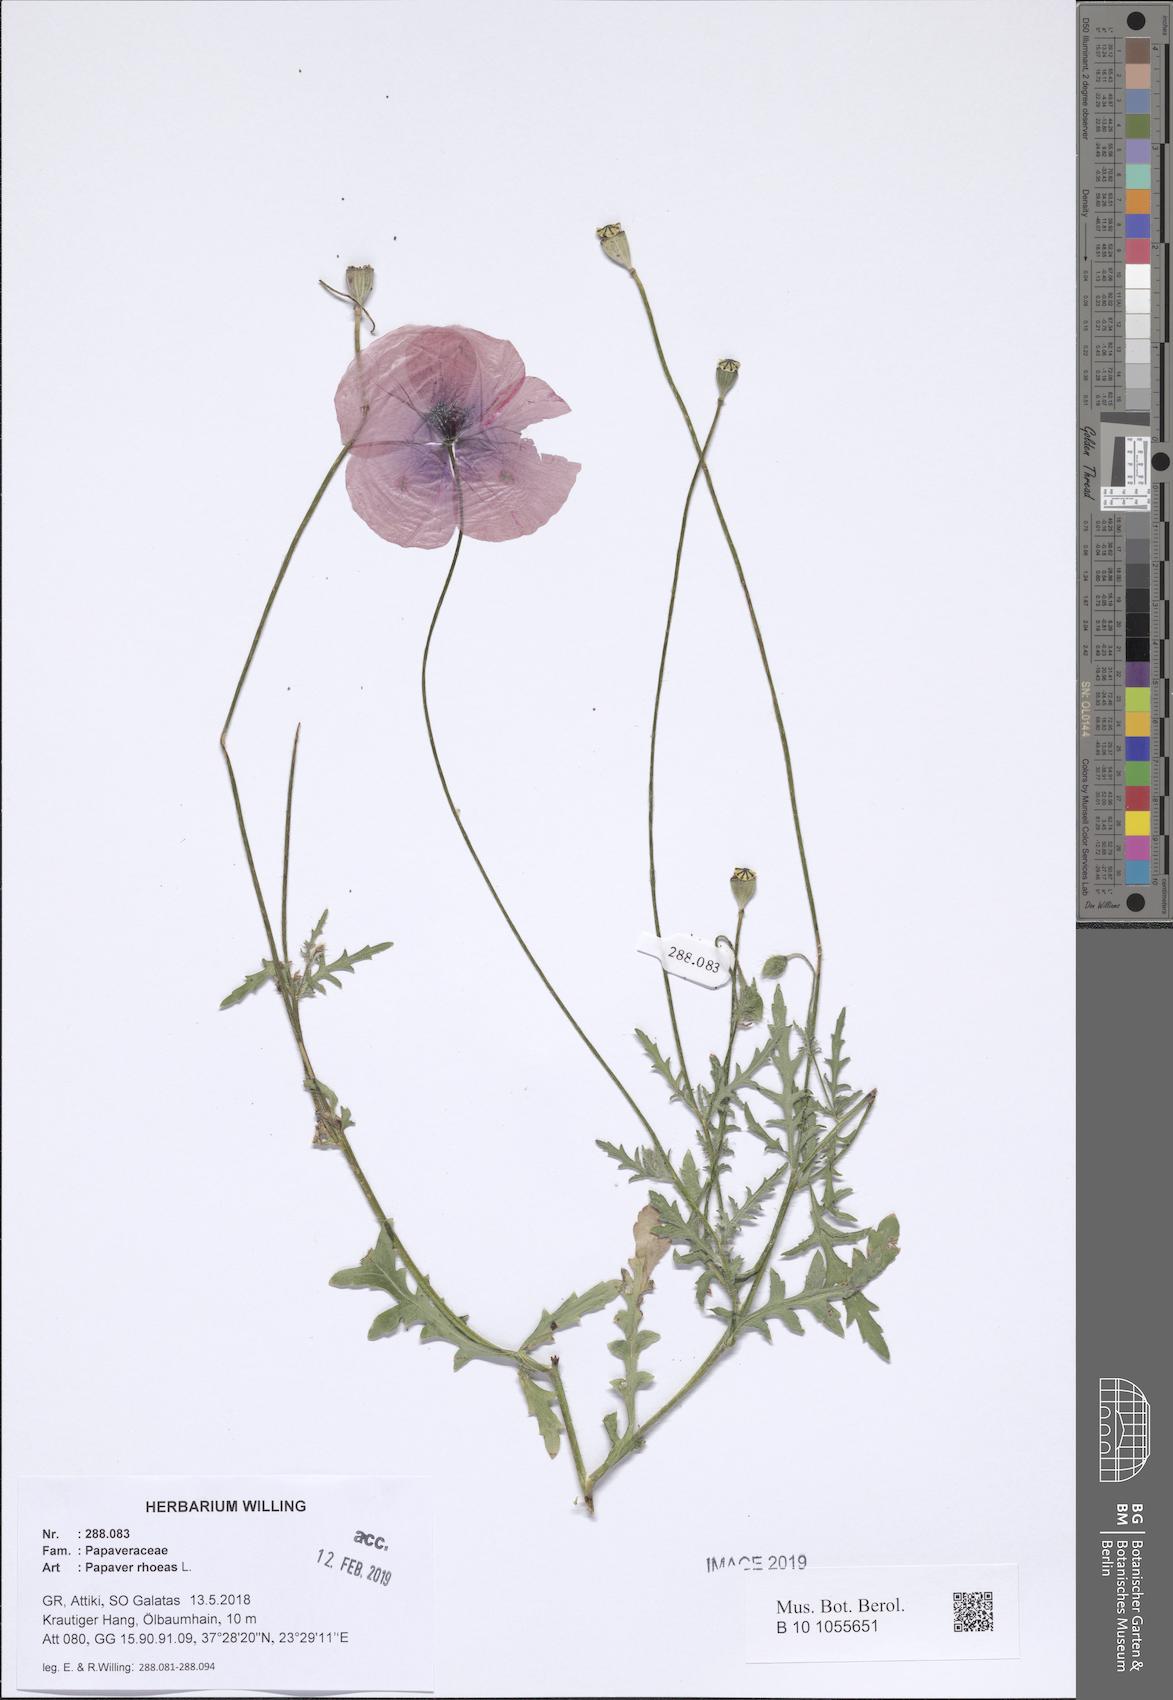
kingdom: Plantae
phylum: Tracheophyta
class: Magnoliopsida
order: Ranunculales
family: Papaveraceae
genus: Papaver
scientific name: Papaver rhoeas
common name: Corn poppy
